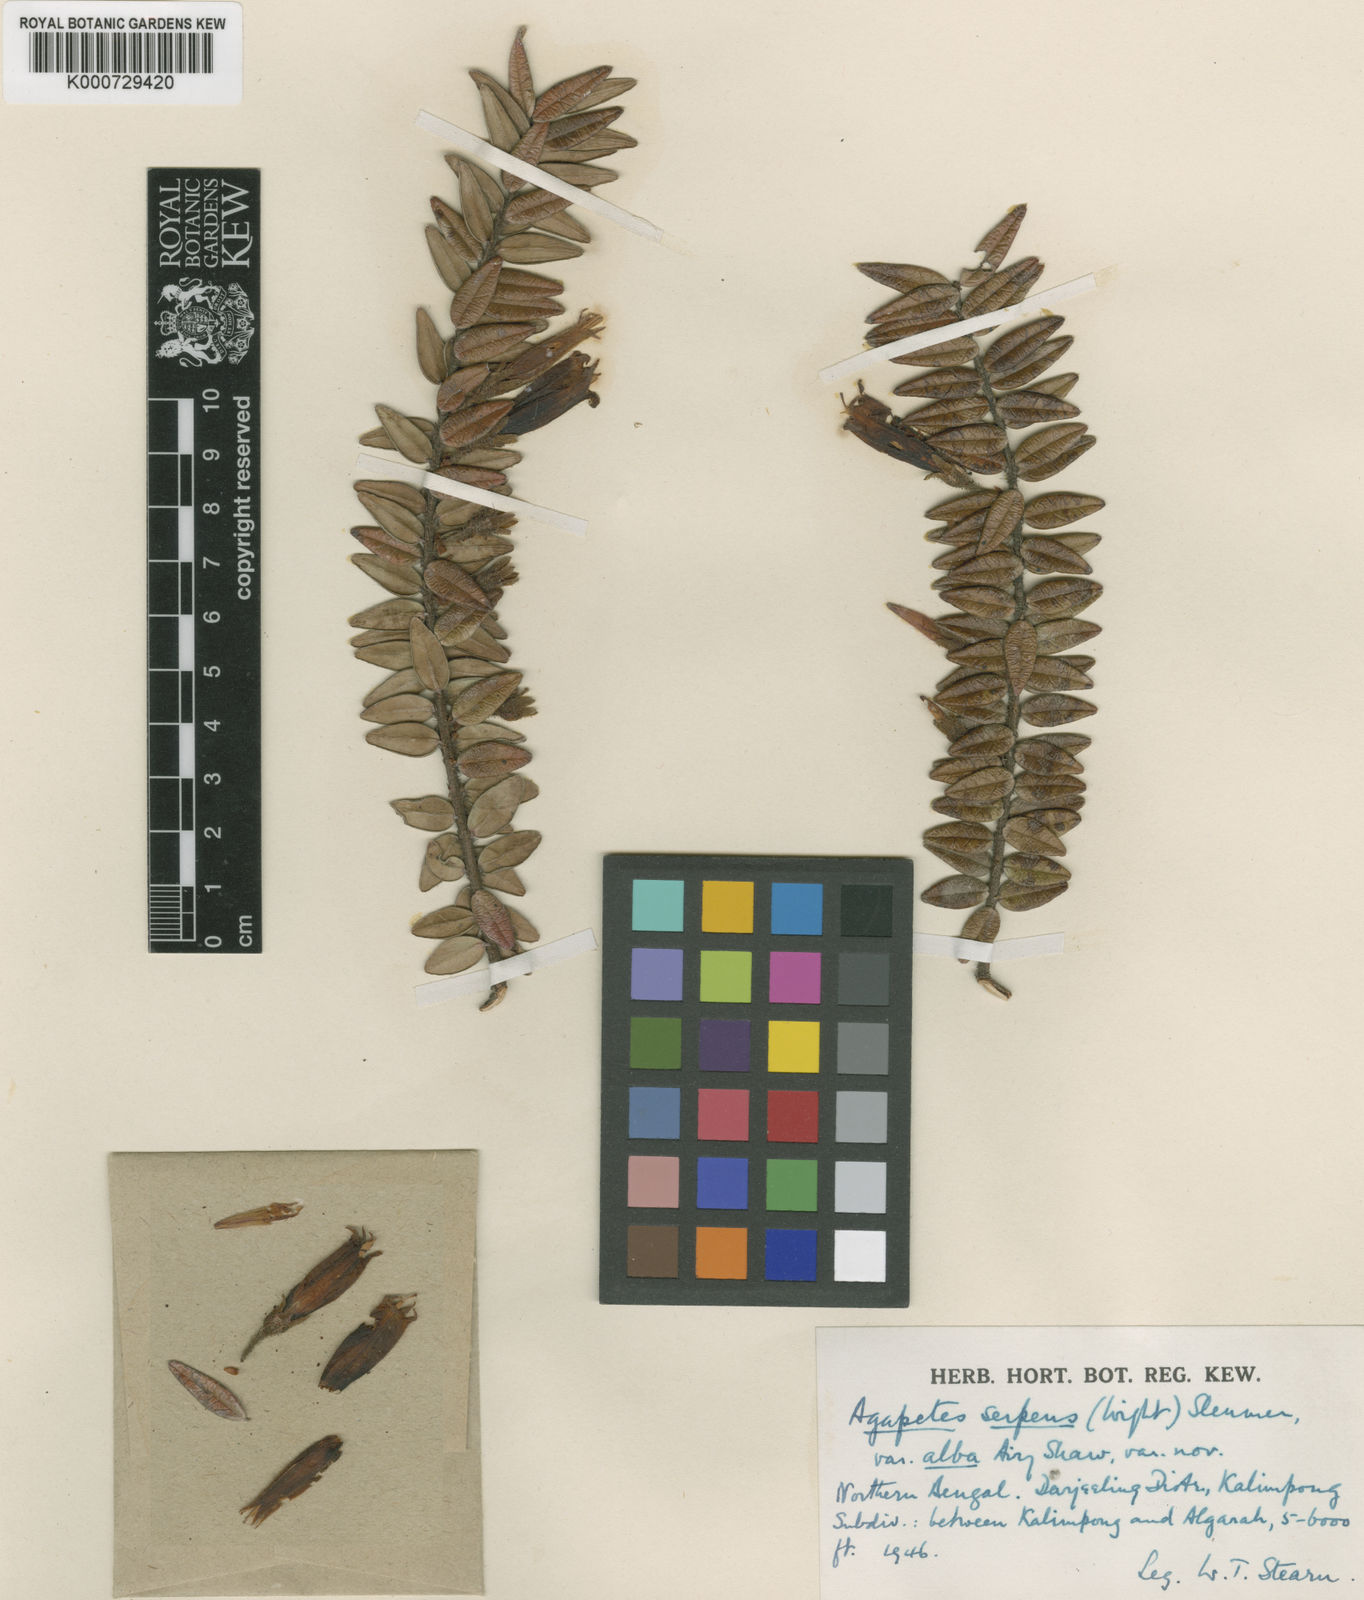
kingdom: Plantae
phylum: Tracheophyta
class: Magnoliopsida
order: Ericales
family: Ericaceae
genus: Agapetes
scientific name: Agapetes serpens
